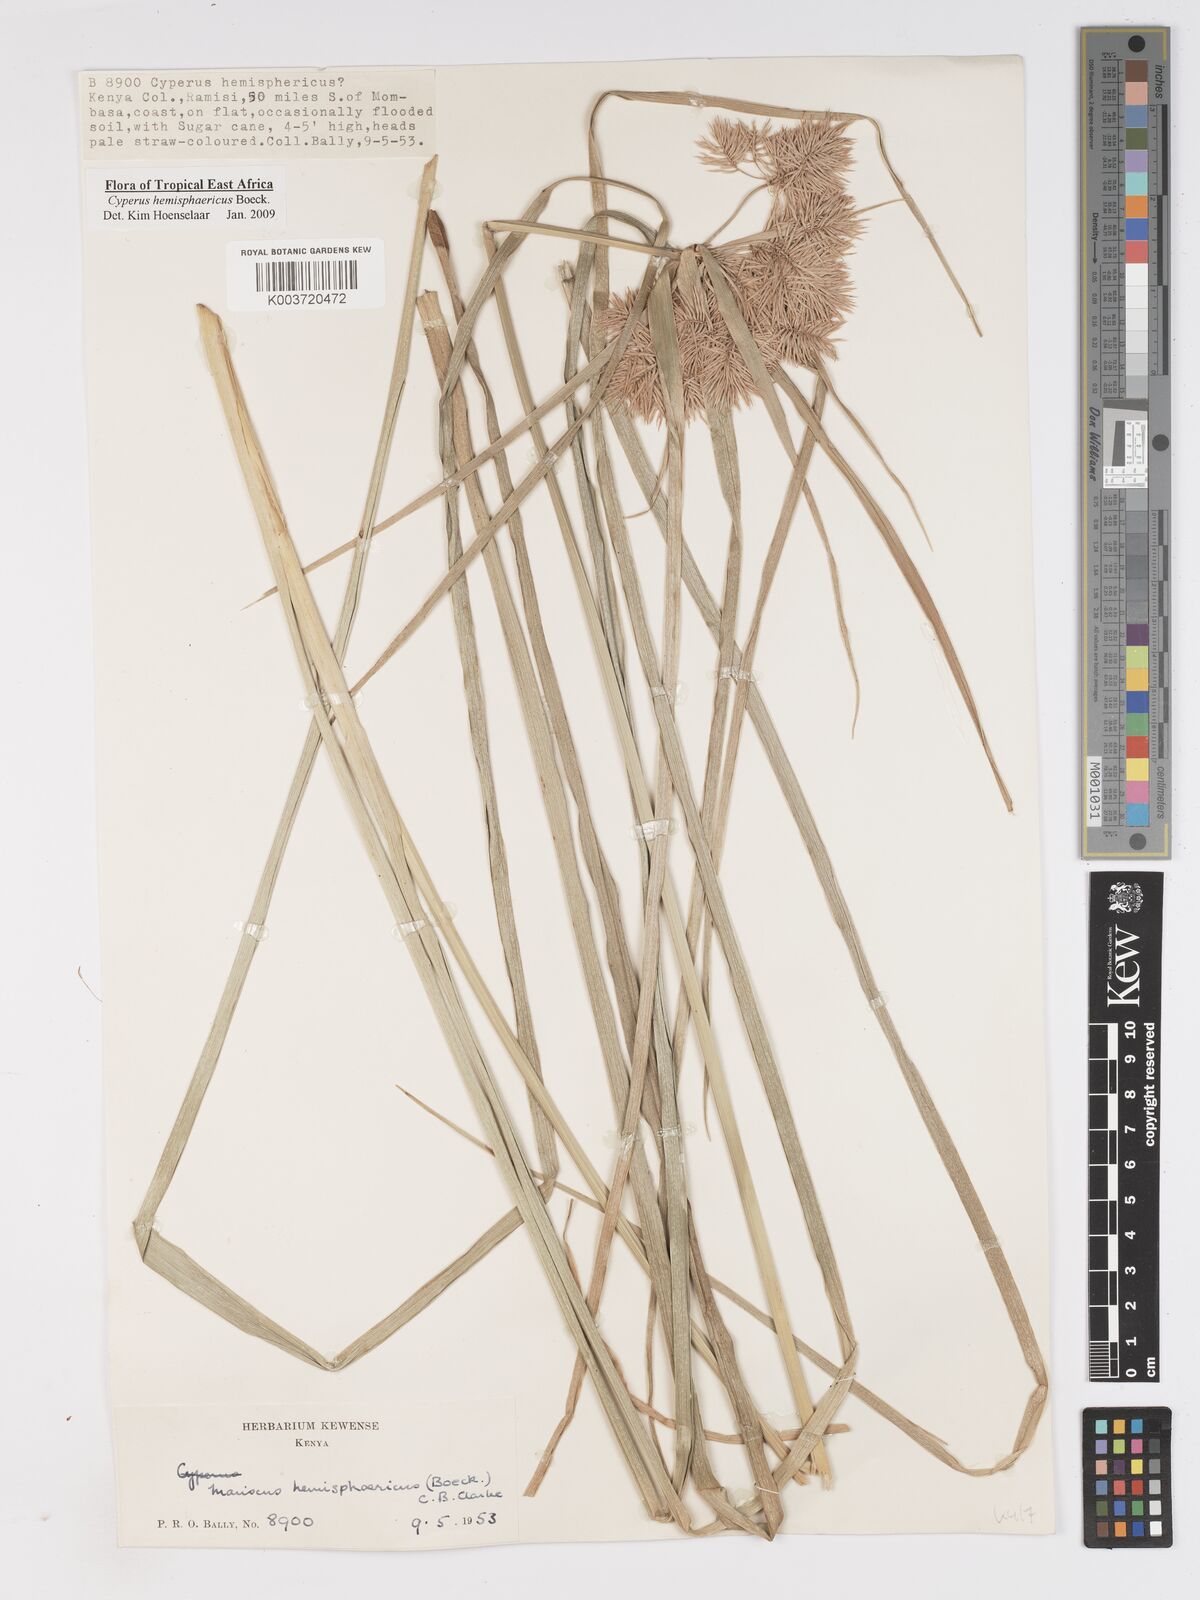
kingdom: Plantae
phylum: Tracheophyta
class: Liliopsida
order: Poales
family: Cyperaceae
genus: Cyperus
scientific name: Cyperus hemisphaericus
